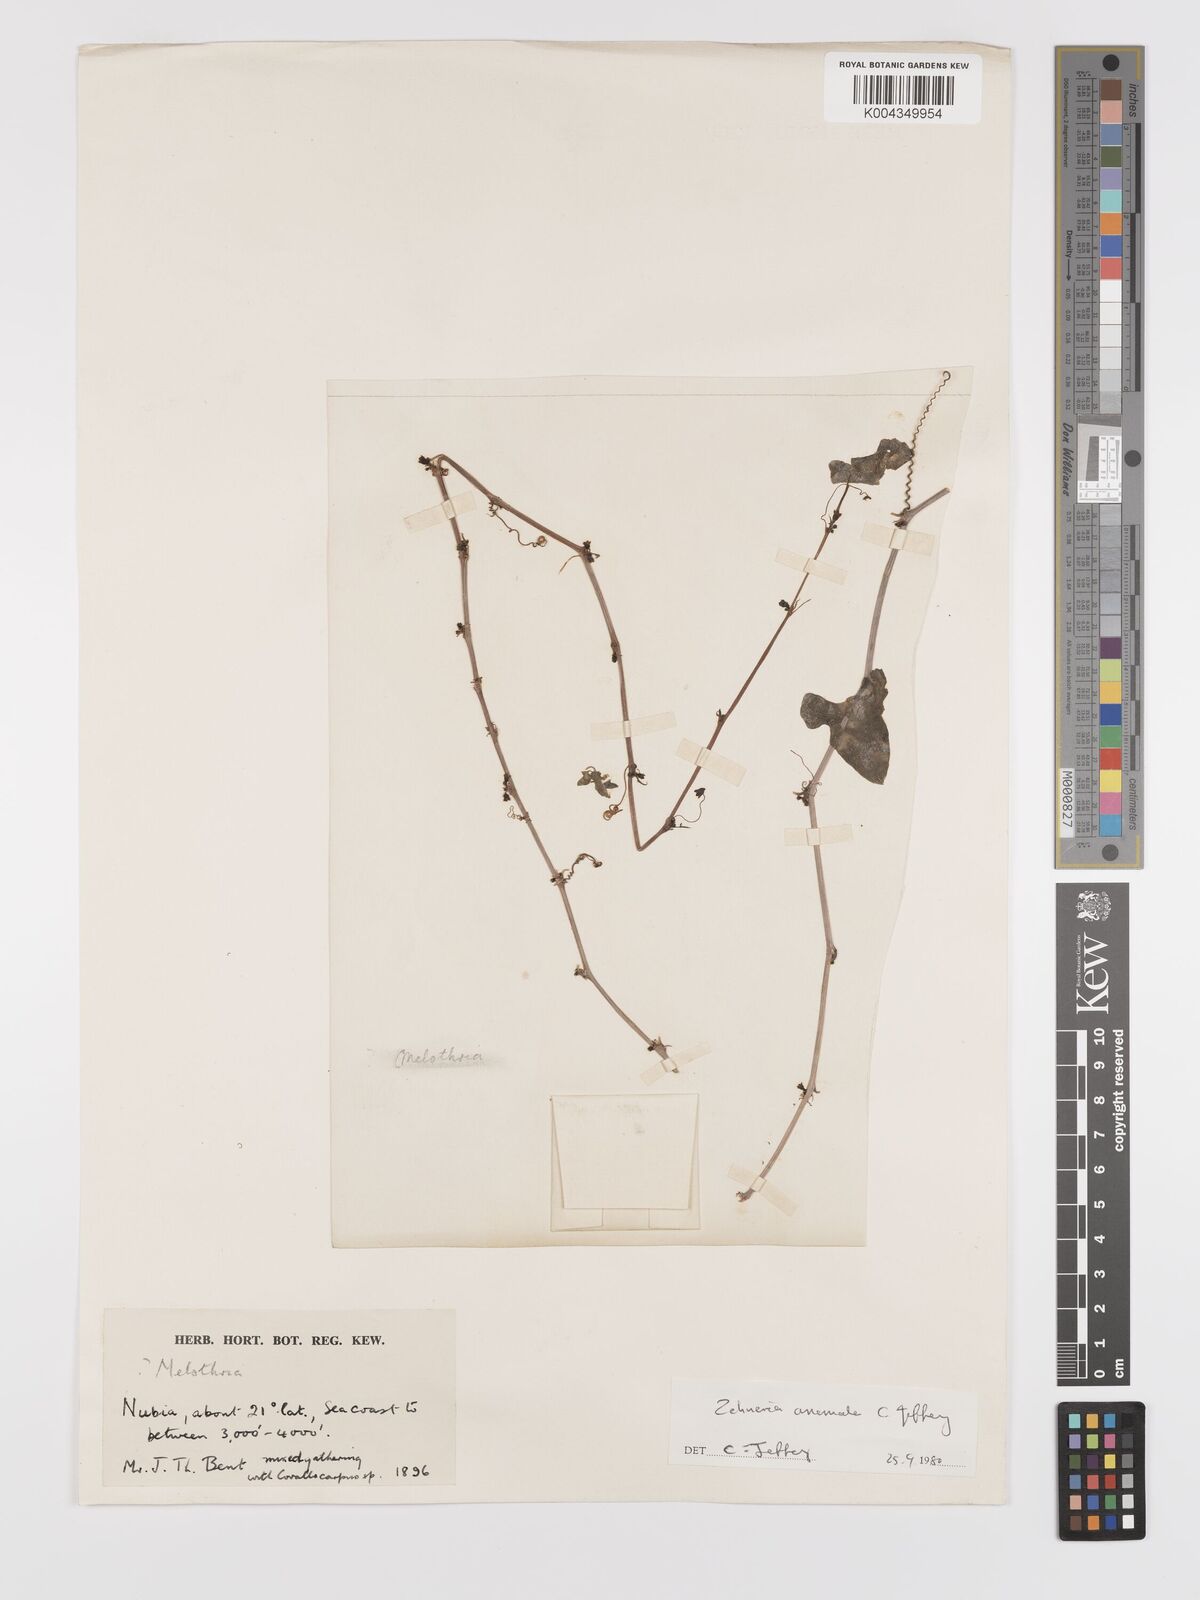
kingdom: Plantae
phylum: Tracheophyta
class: Magnoliopsida
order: Cucurbitales
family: Cucurbitaceae
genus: Zehneria
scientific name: Zehneria anomala
